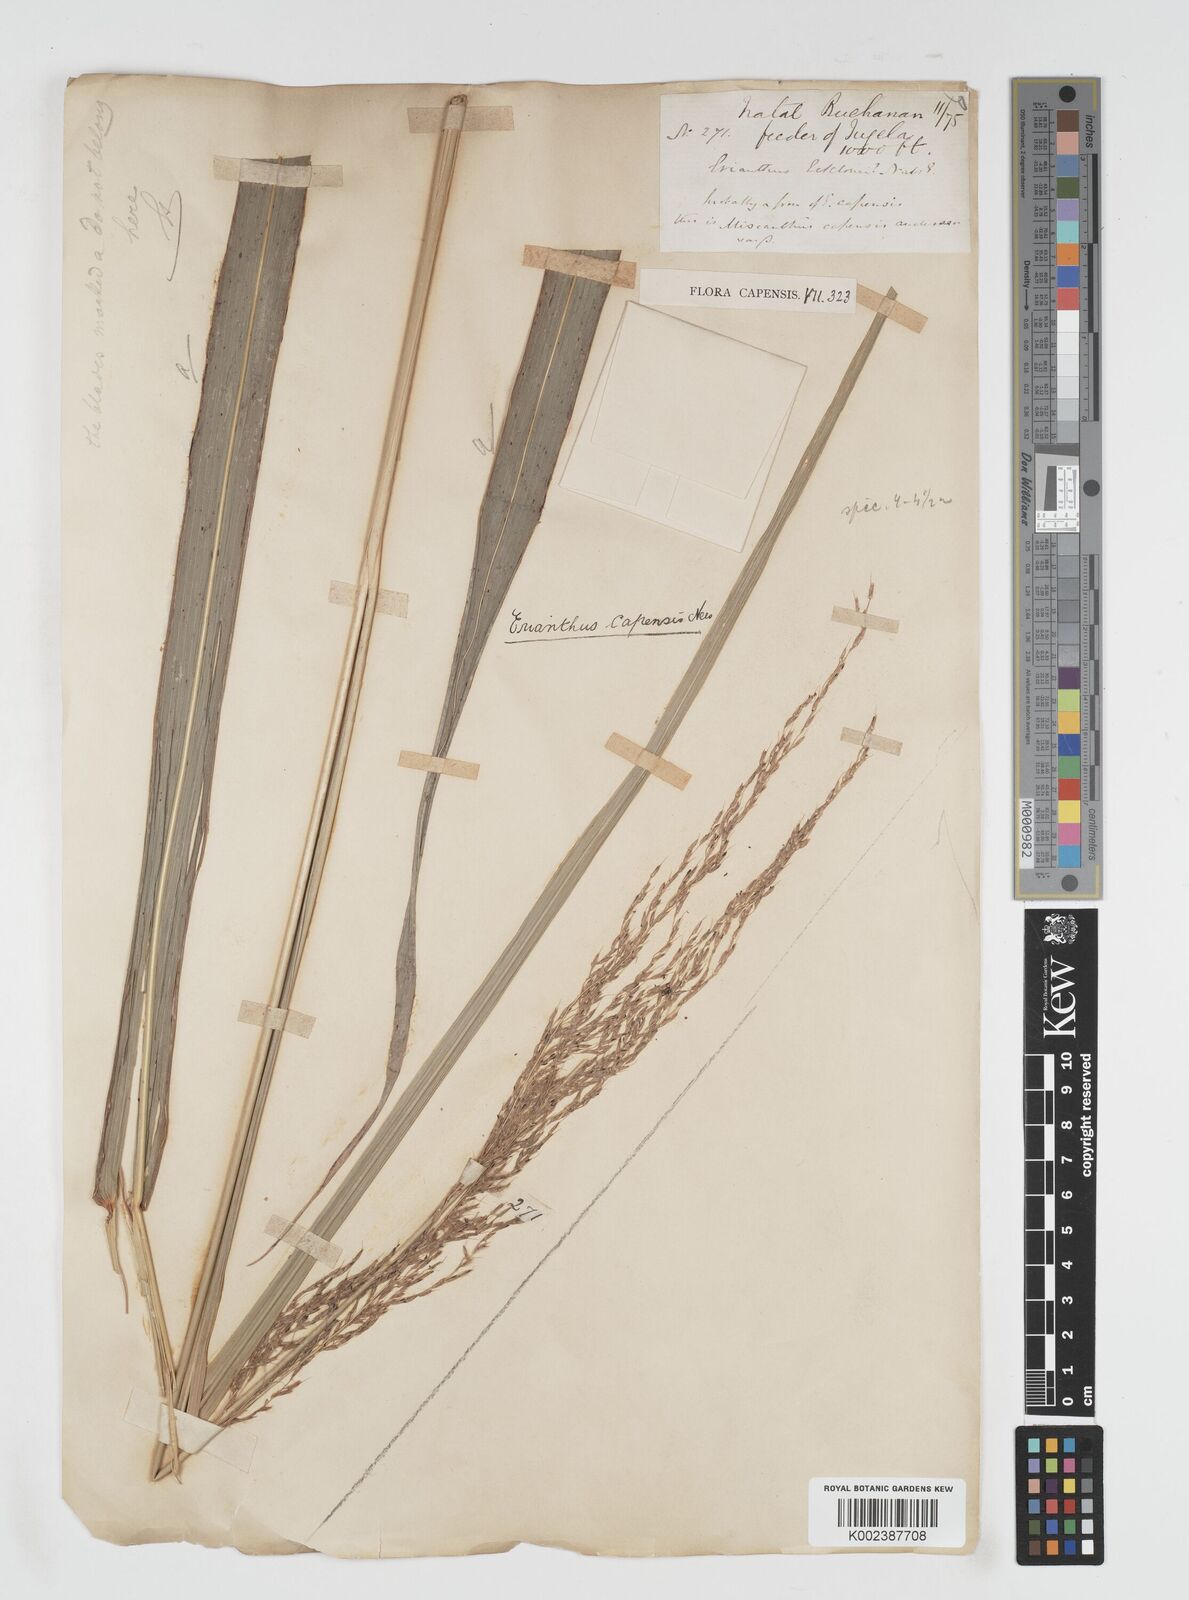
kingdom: Plantae
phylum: Tracheophyta
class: Liliopsida
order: Poales
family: Poaceae
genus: Miscanthus
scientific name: Miscanthus ecklonii
